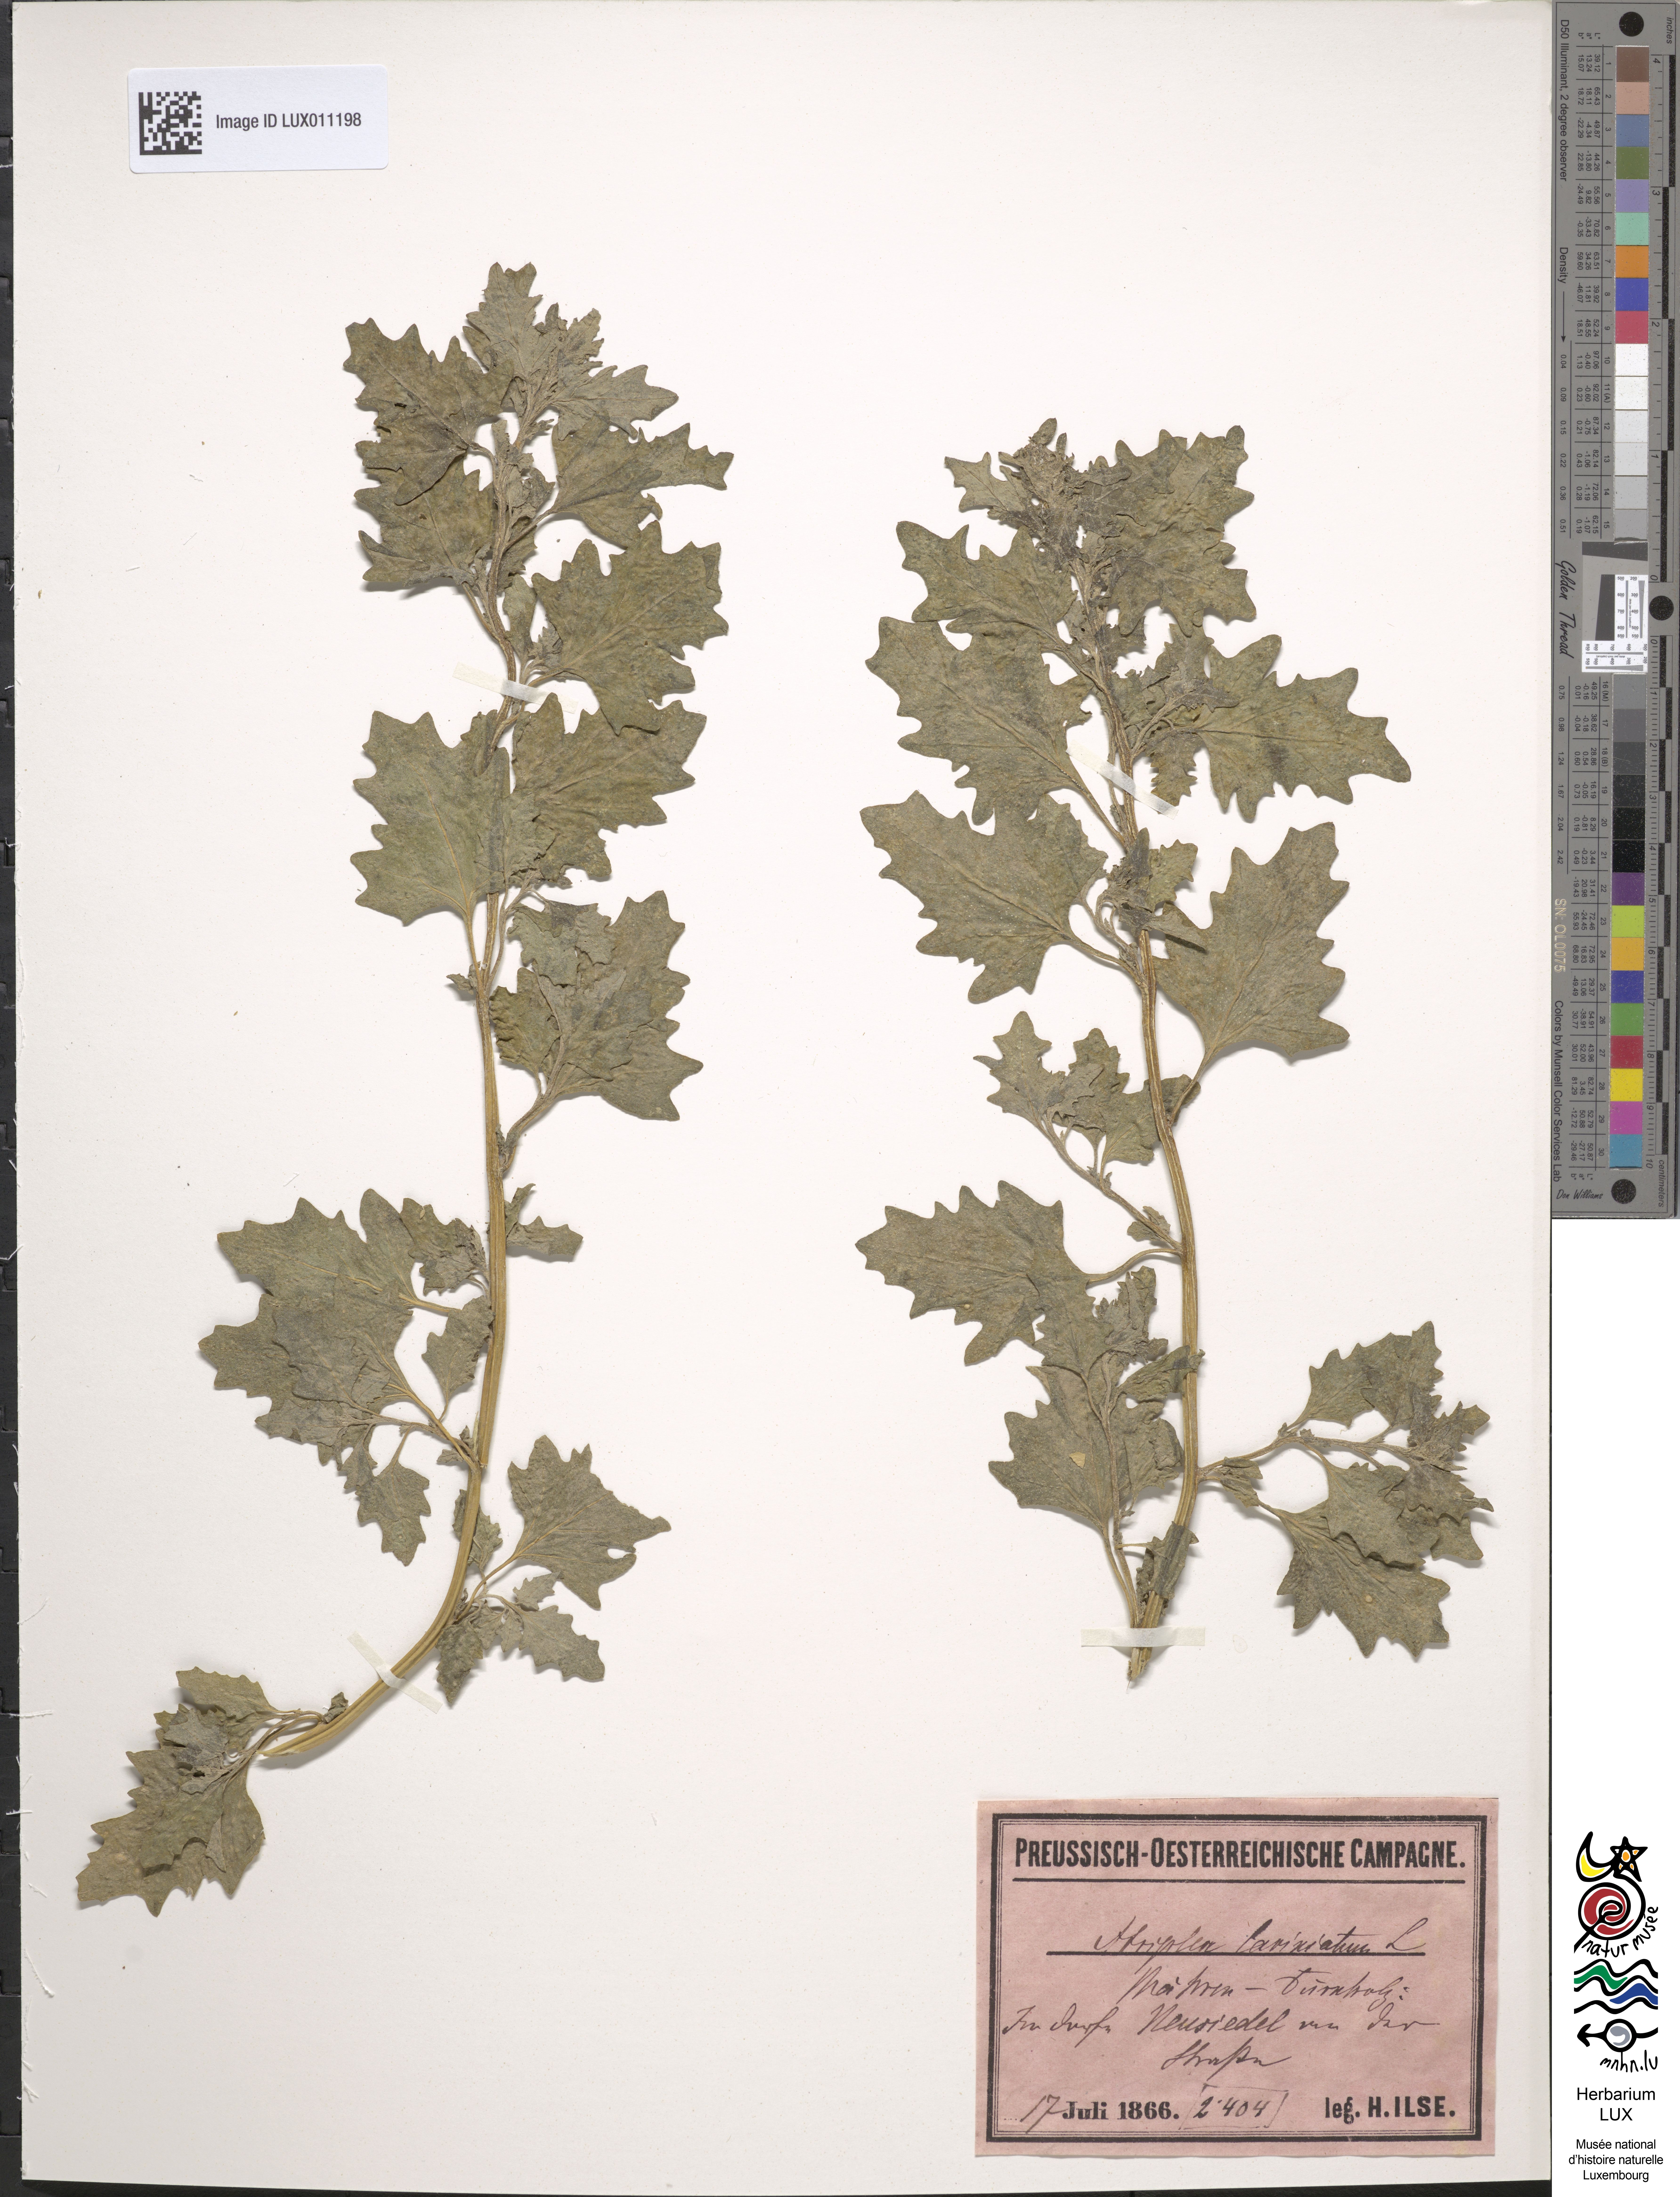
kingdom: Plantae
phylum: Tracheophyta
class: Magnoliopsida
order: Caryophyllales
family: Amaranthaceae
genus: Atriplex
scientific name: Atriplex laciniata
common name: Frosted orache
